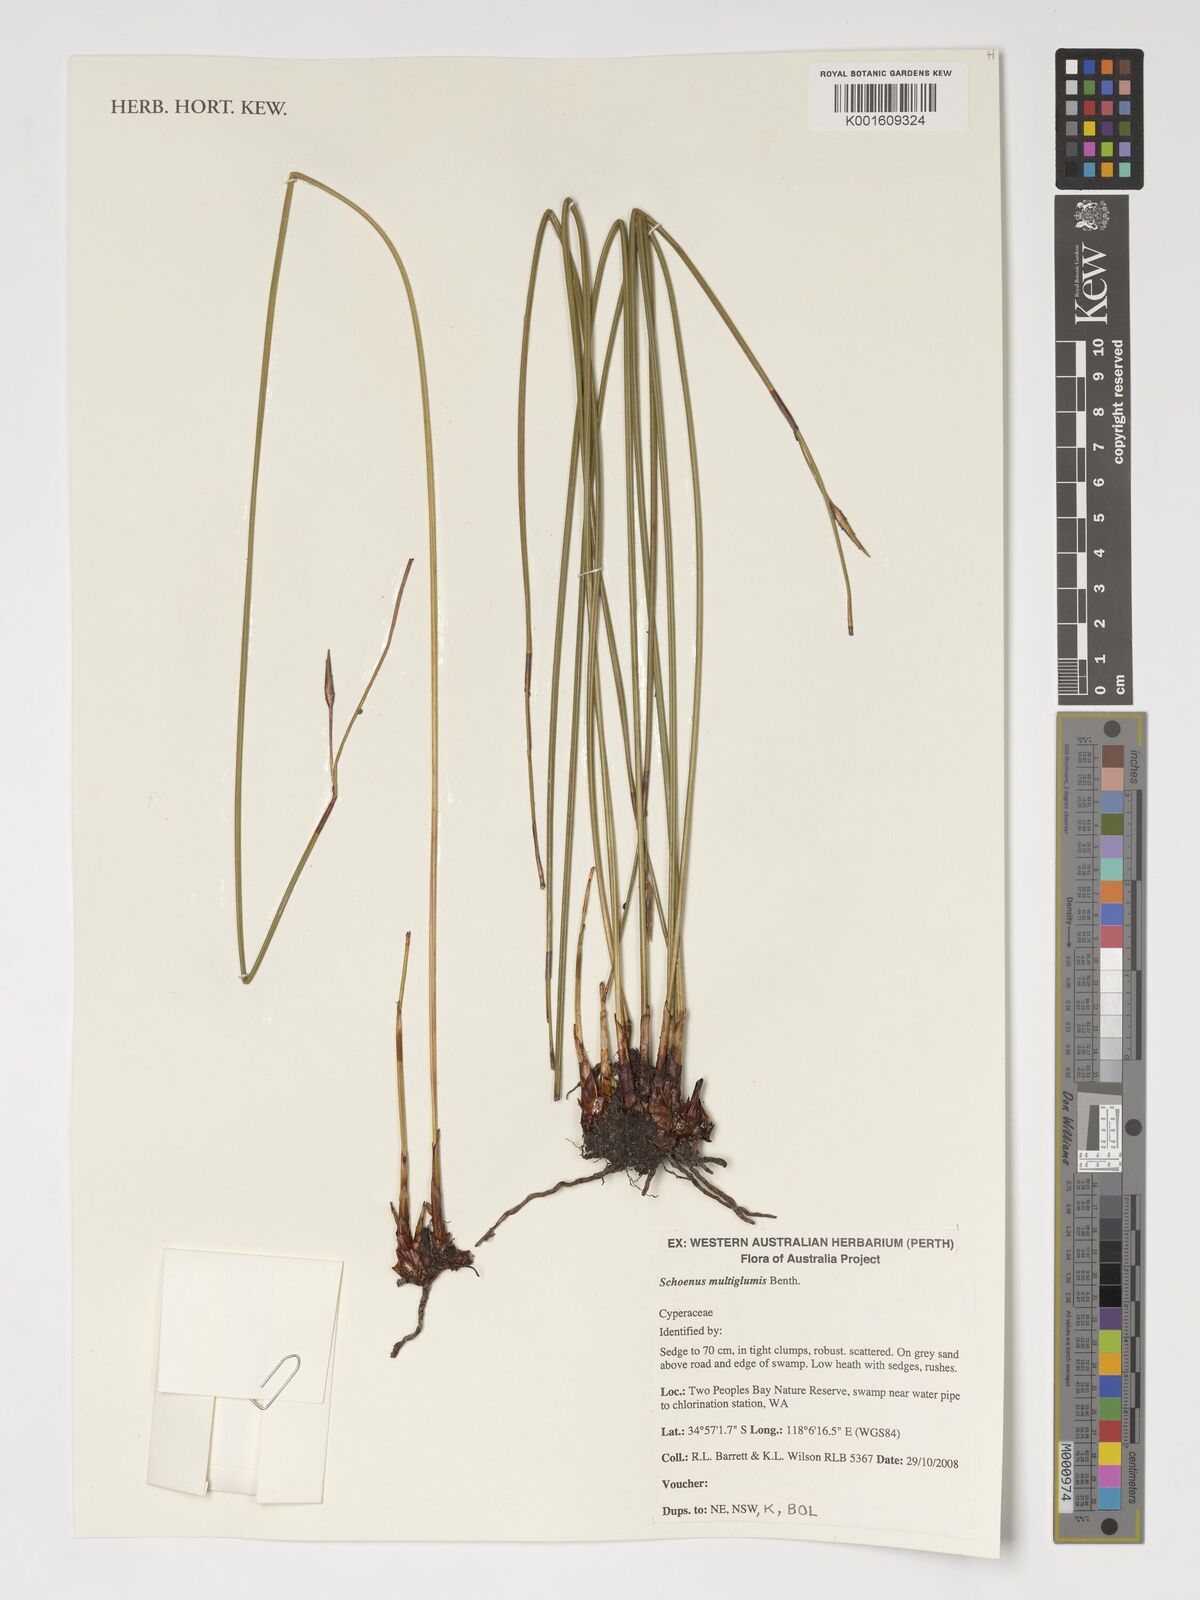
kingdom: Plantae
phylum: Tracheophyta
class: Liliopsida
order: Poales
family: Cyperaceae
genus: Schoenus
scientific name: Schoenus multiglumis
